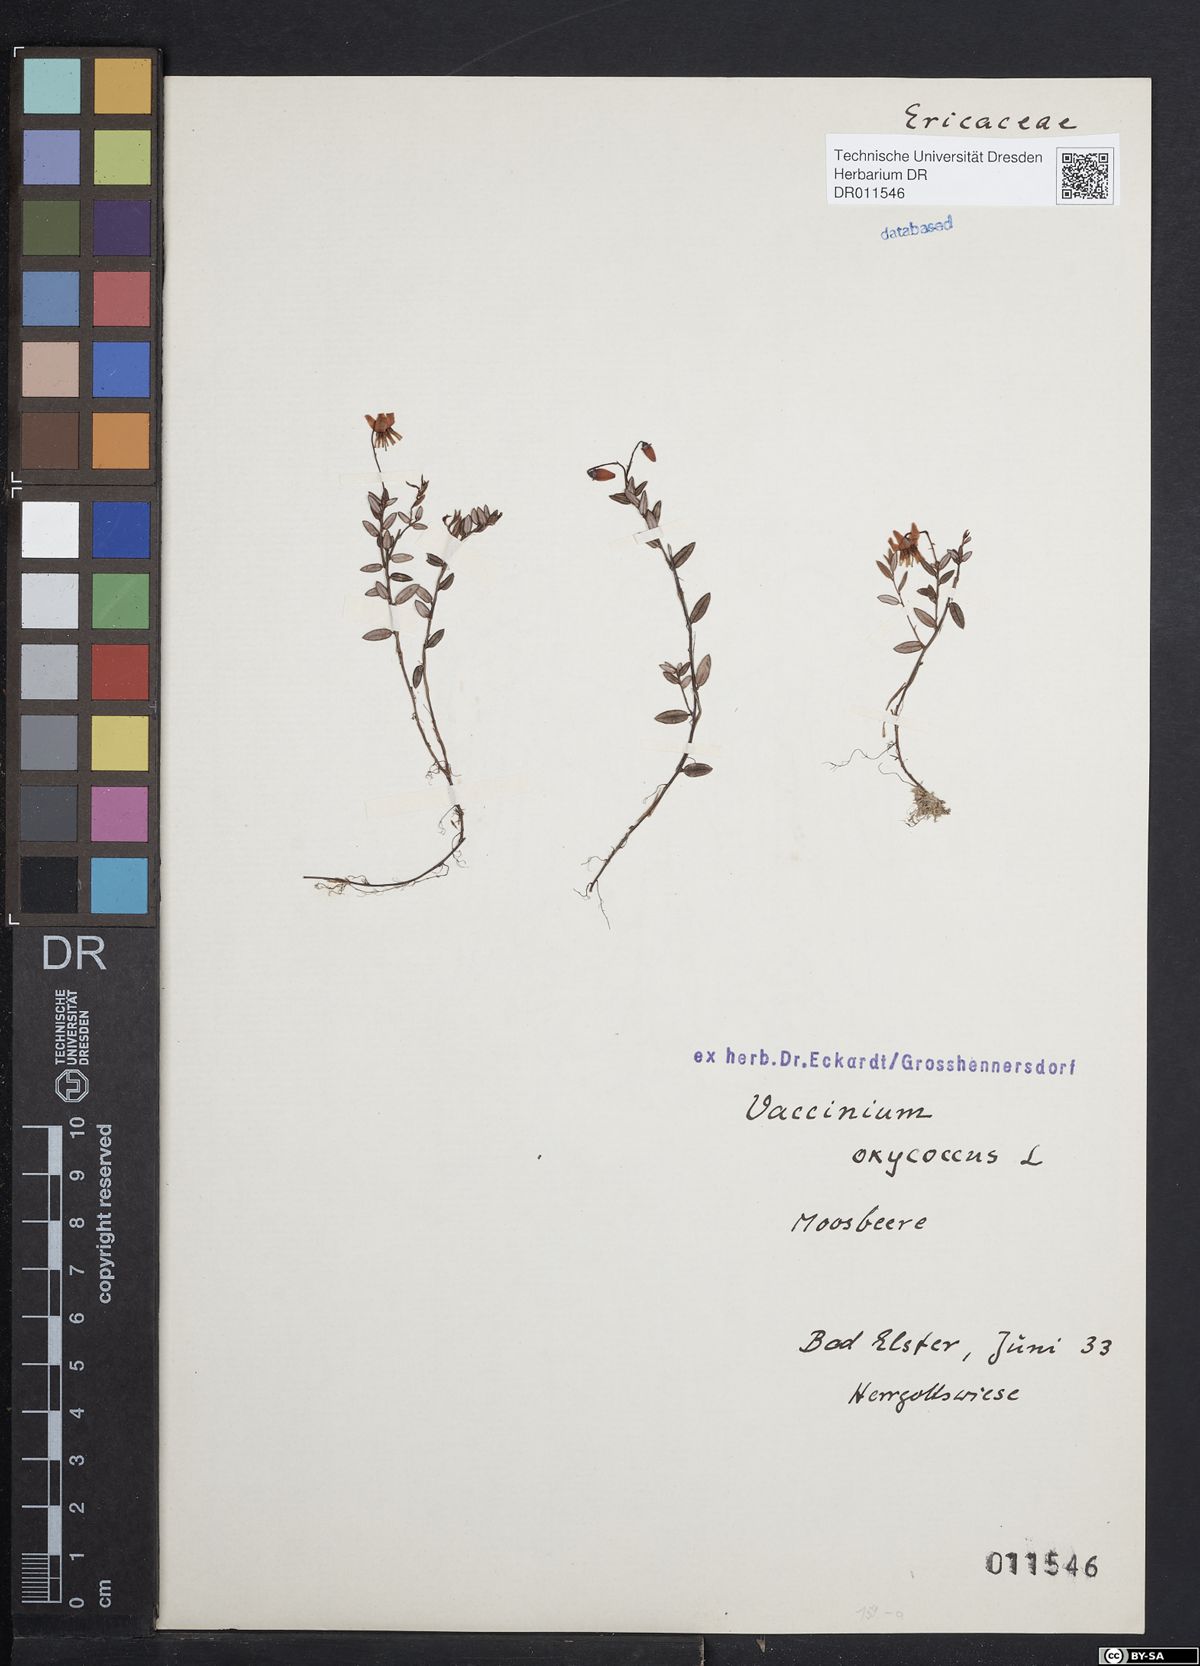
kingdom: Plantae
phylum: Tracheophyta
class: Magnoliopsida
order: Ericales
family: Ericaceae
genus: Vaccinium
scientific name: Vaccinium oxycoccos
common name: Cranberry
